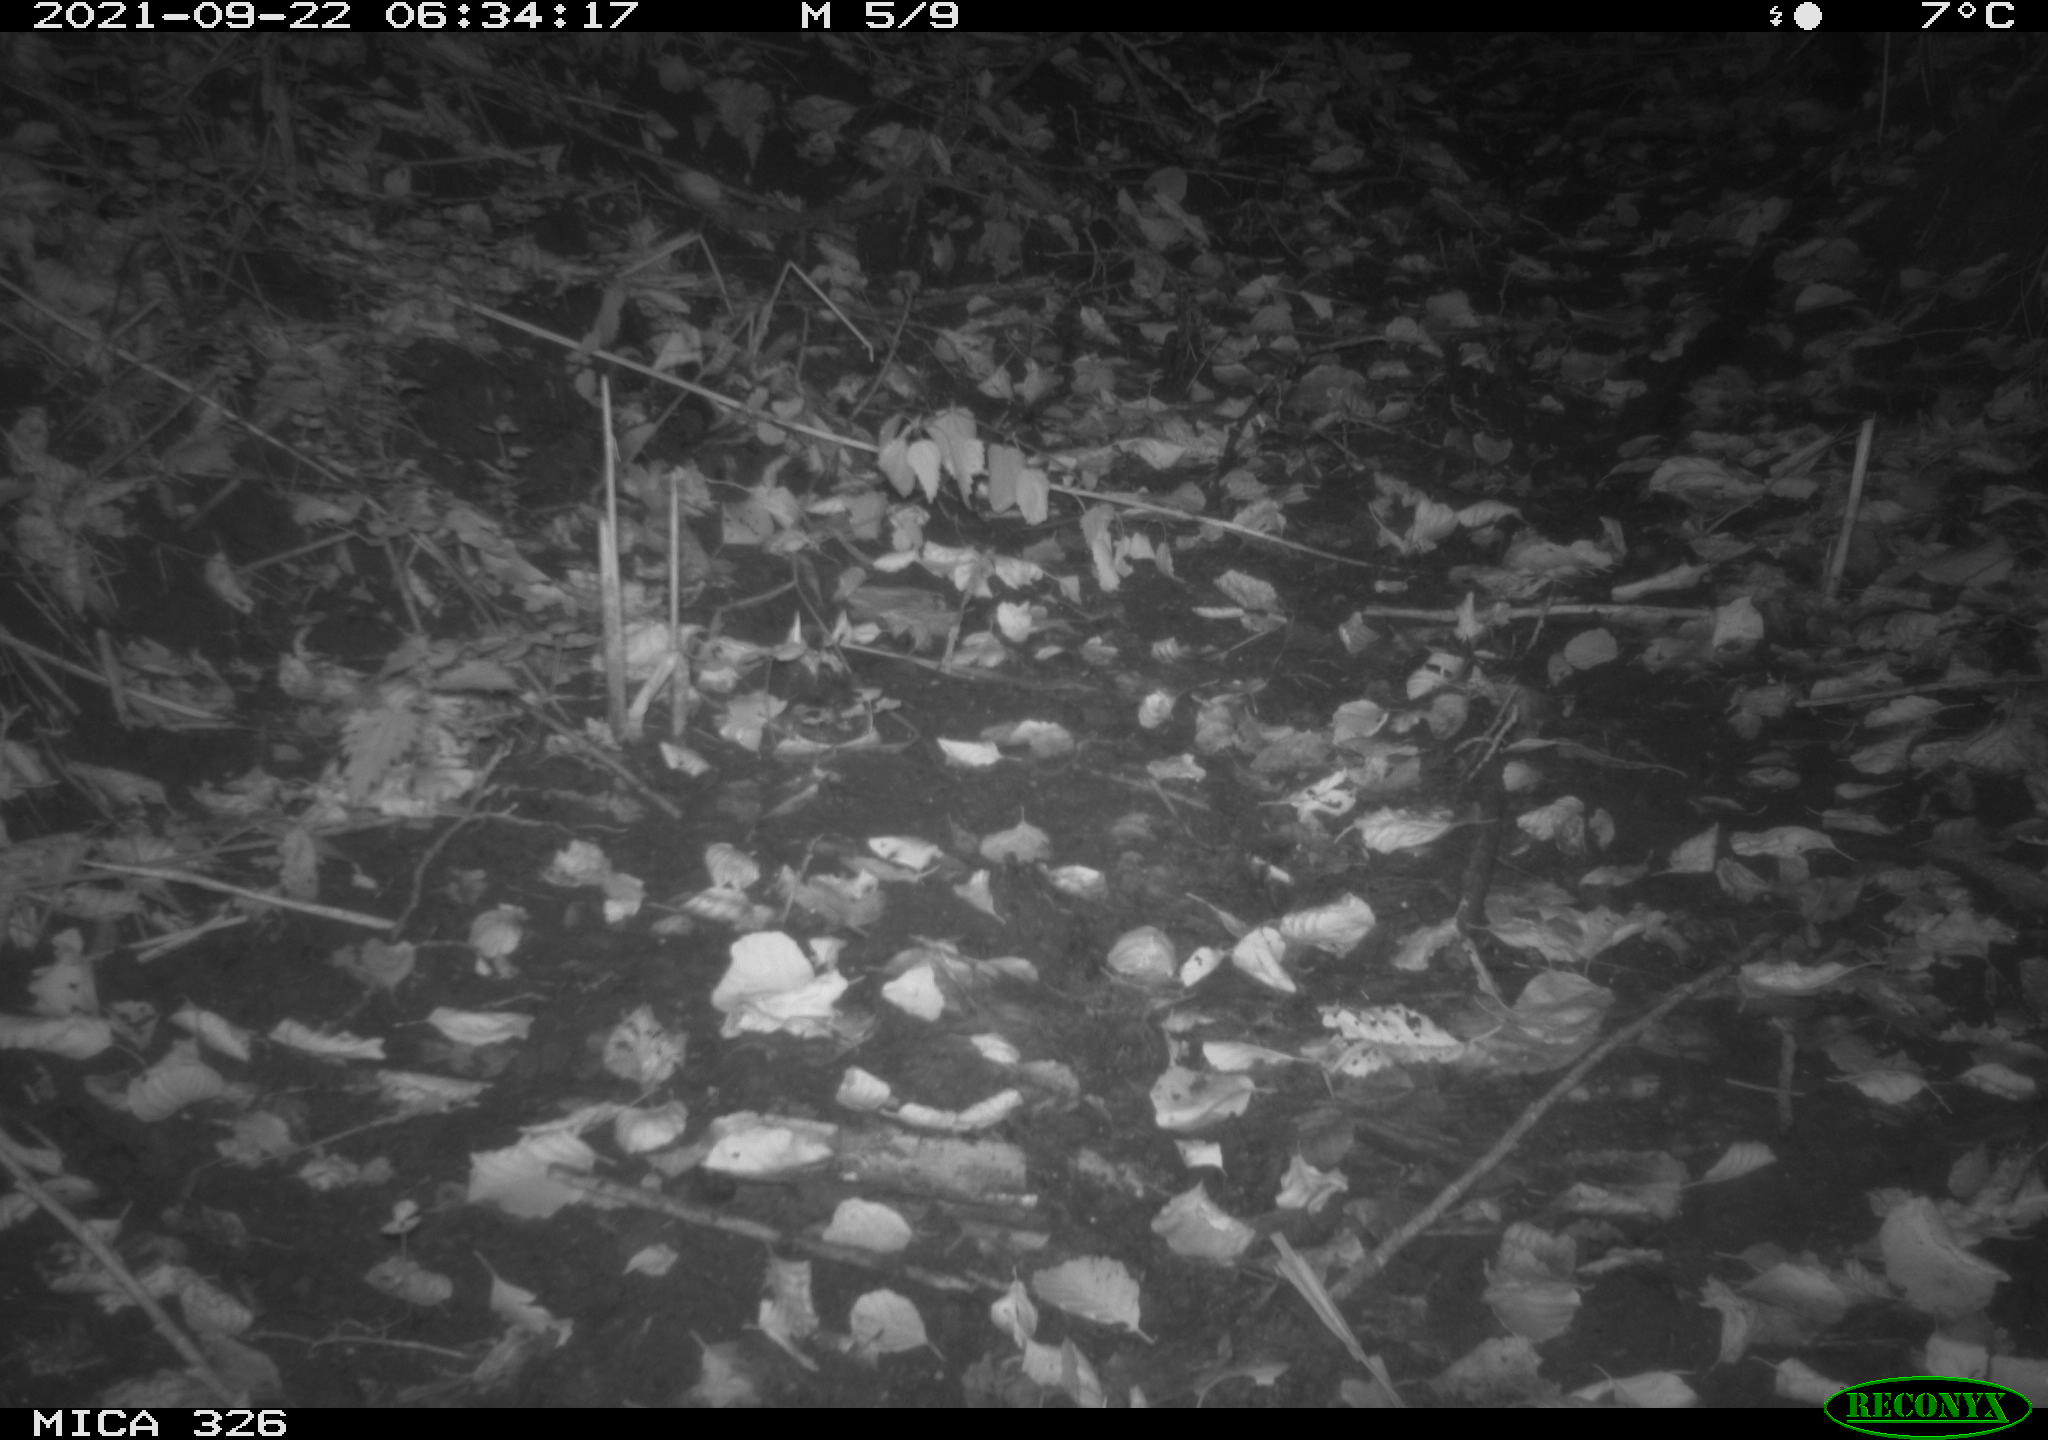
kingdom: Animalia
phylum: Chordata
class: Mammalia
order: Rodentia
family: Muridae
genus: Rattus
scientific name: Rattus norvegicus
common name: Brown rat
